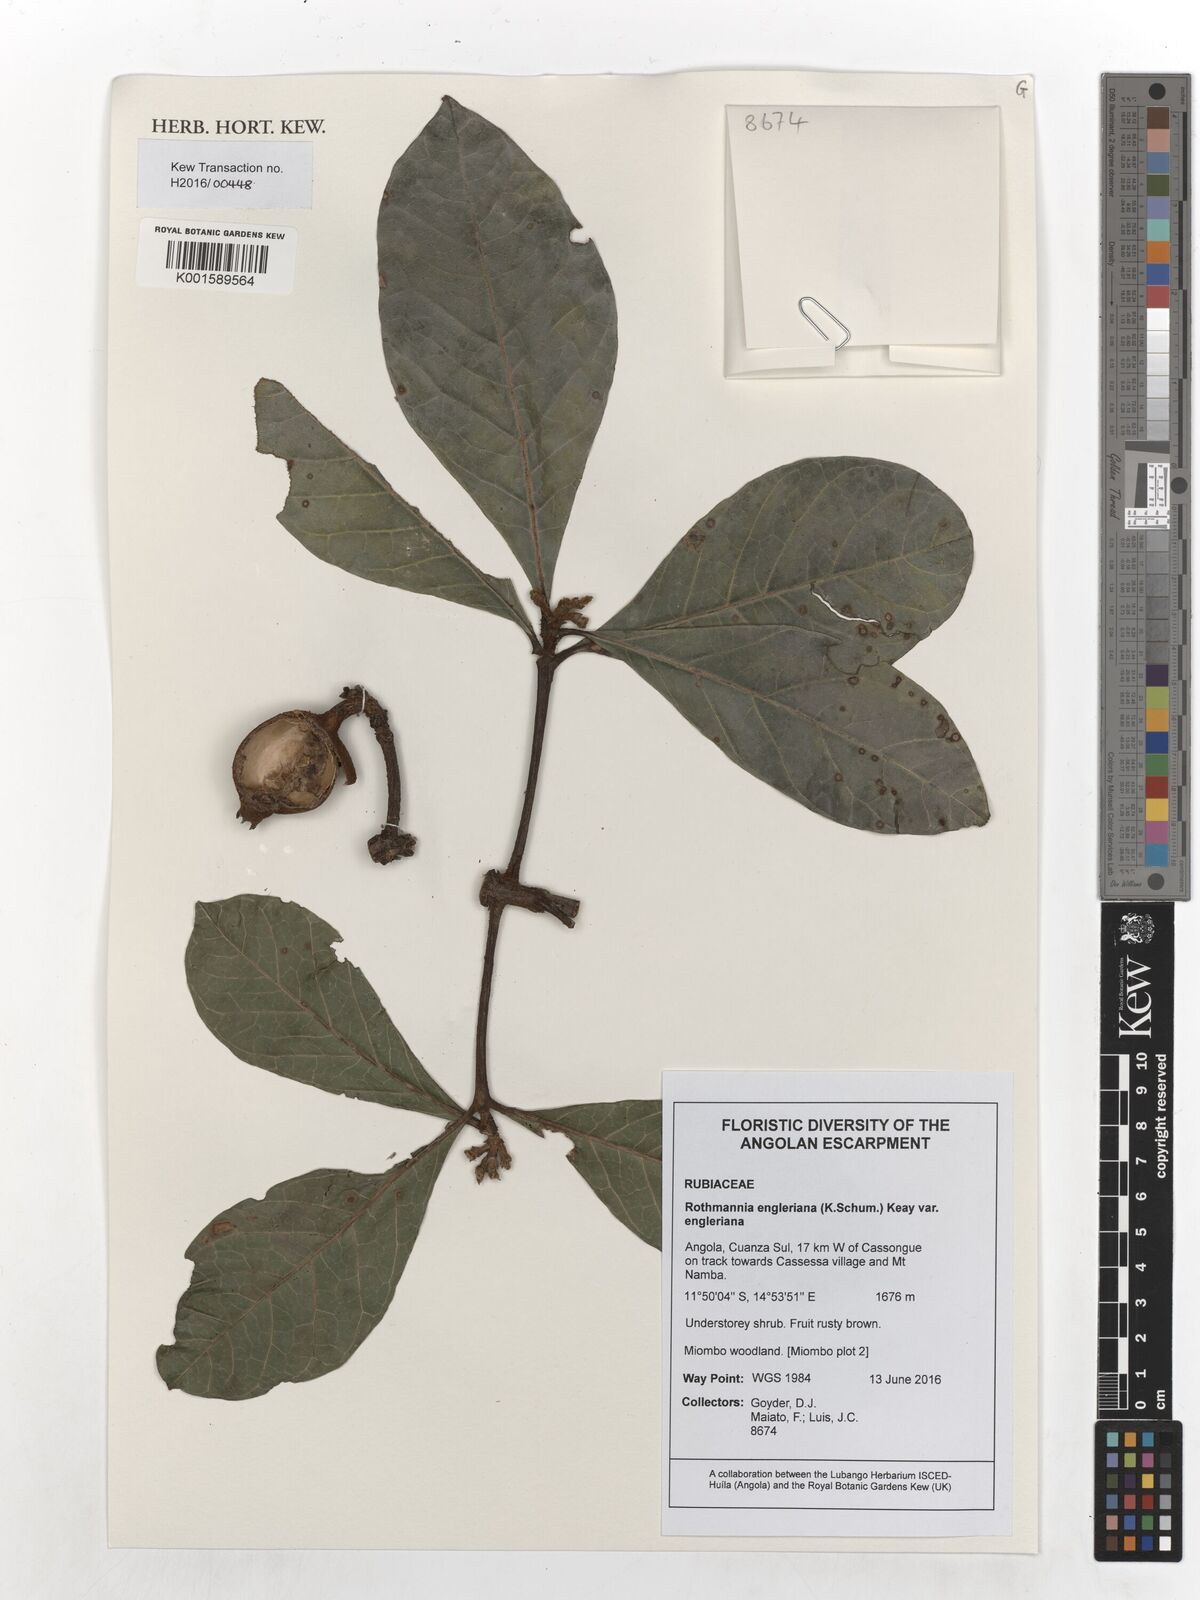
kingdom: Plantae
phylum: Tracheophyta
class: Magnoliopsida
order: Gentianales
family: Rubiaceae
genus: Rothmannia
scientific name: Rothmannia engleriana
